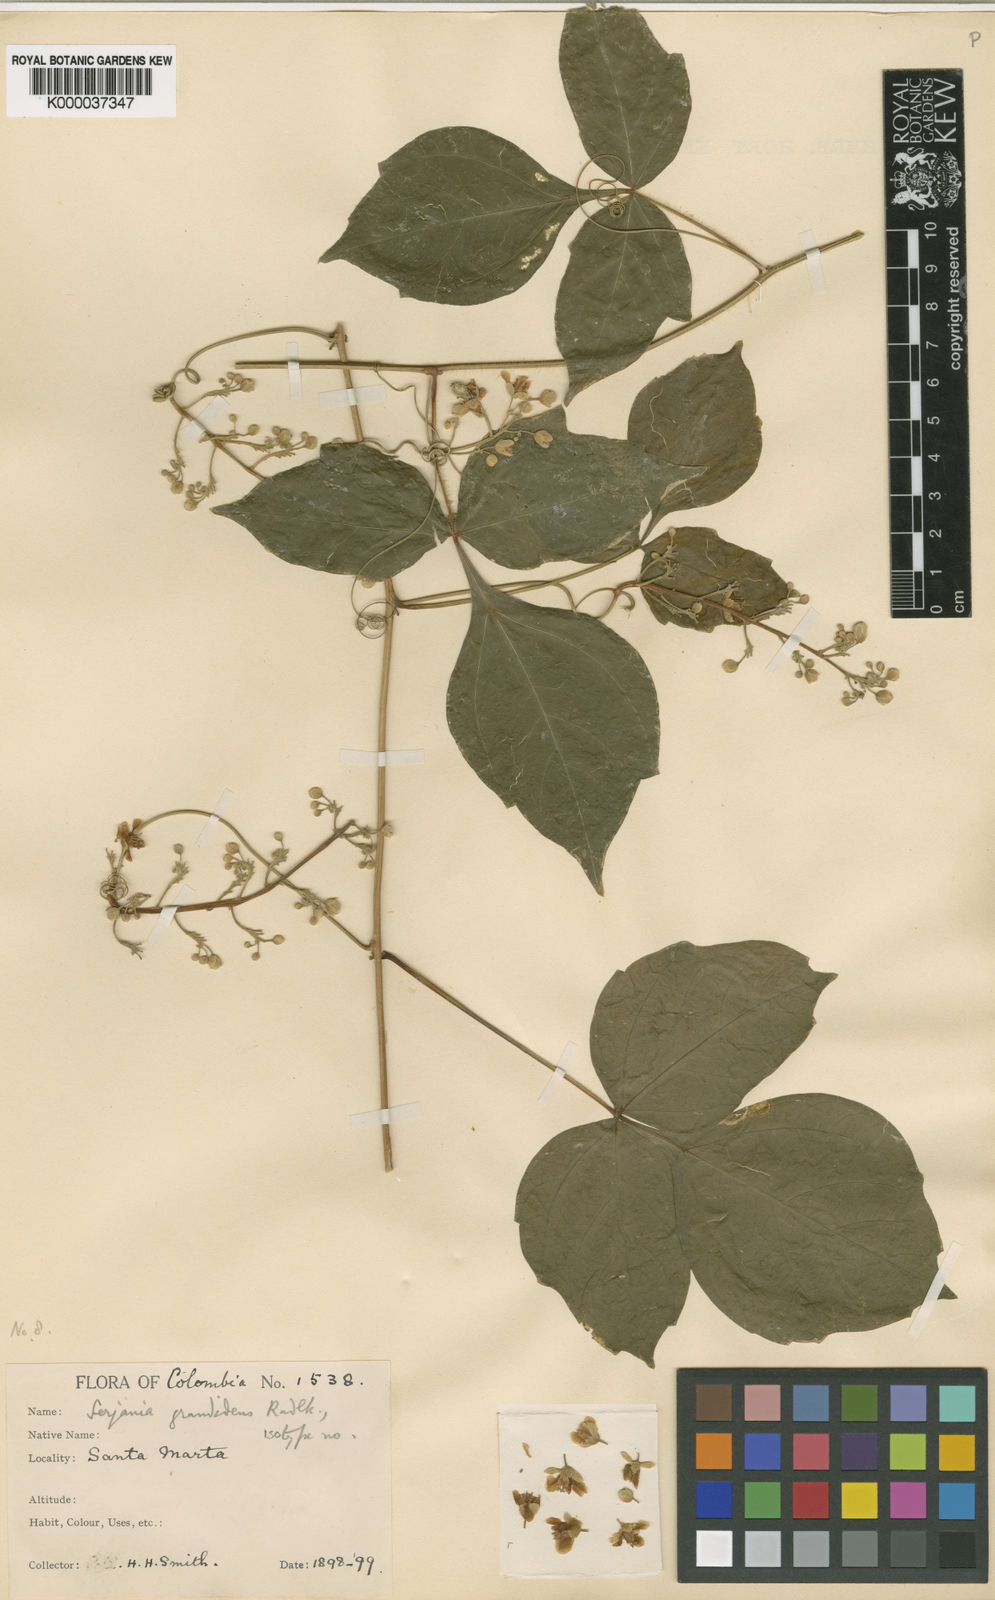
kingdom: Plantae
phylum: Tracheophyta
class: Magnoliopsida
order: Sapindales
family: Sapindaceae
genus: Serjania
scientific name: Serjania grandidens
